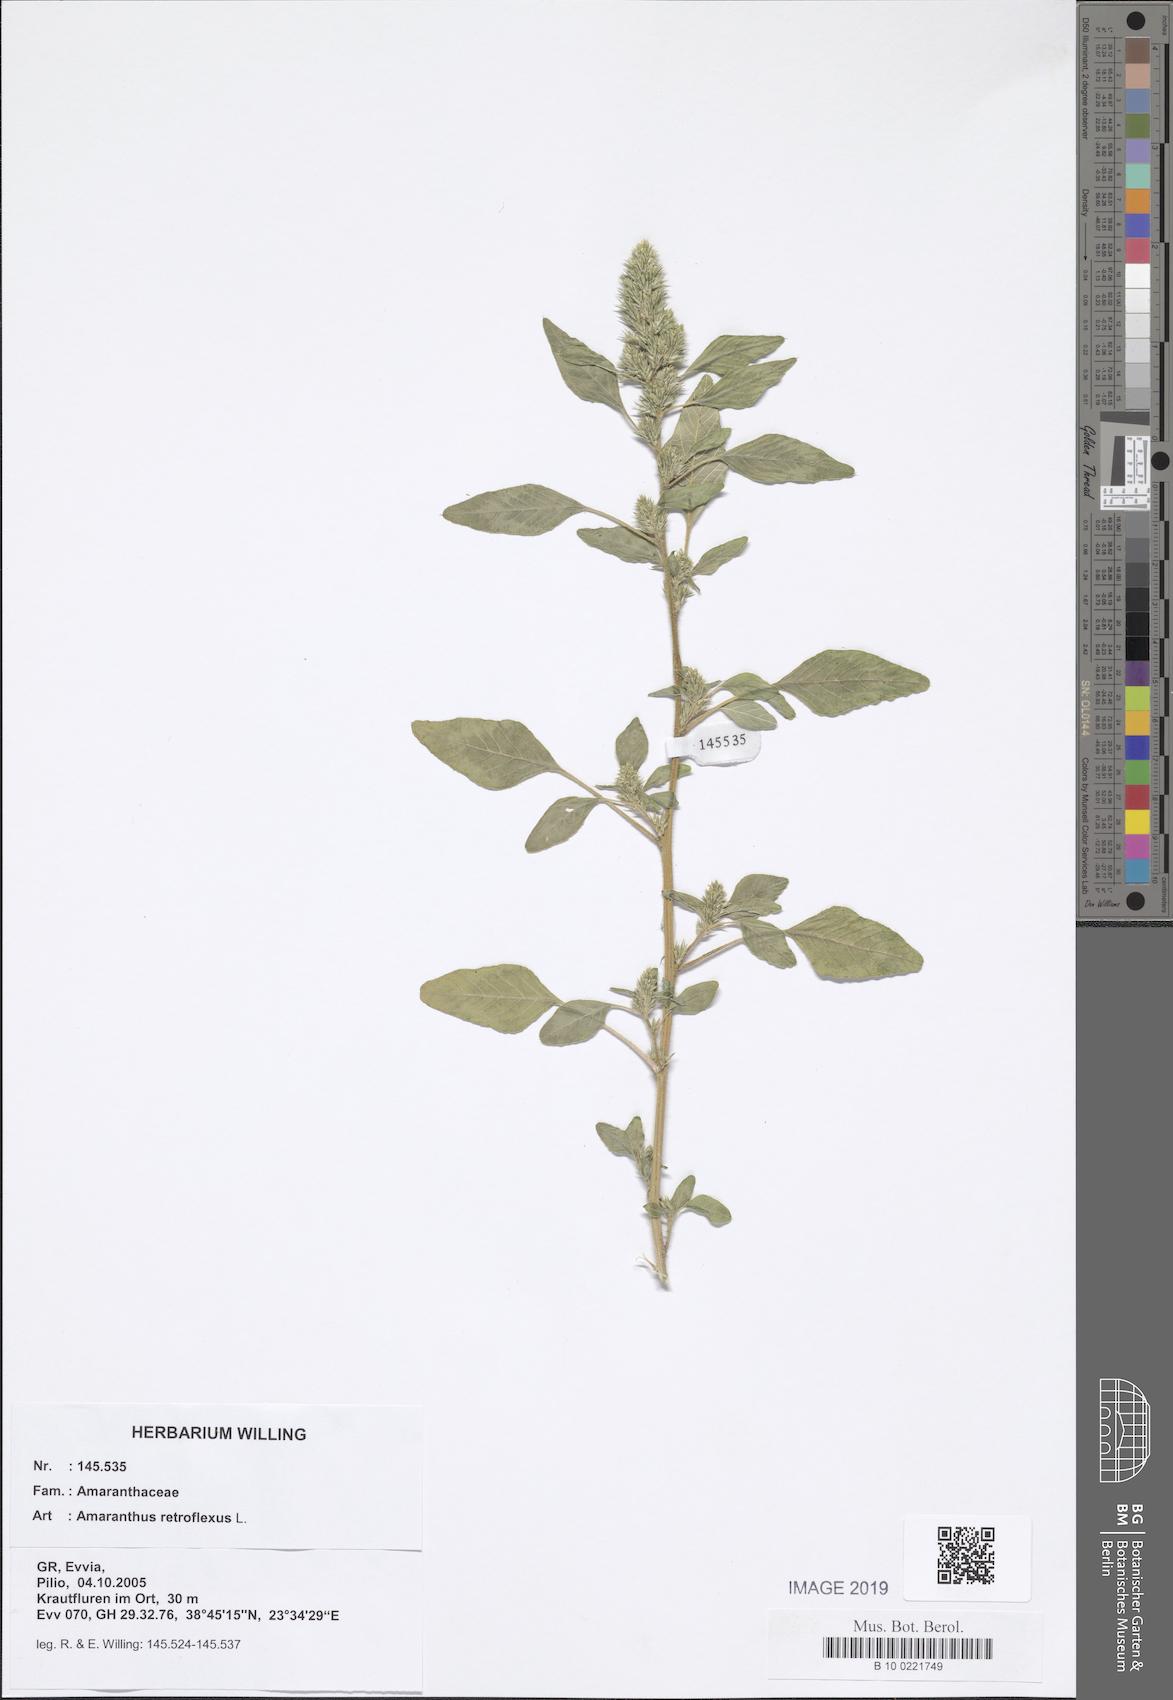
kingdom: Plantae
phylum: Tracheophyta
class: Magnoliopsida
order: Caryophyllales
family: Amaranthaceae
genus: Amaranthus
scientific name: Amaranthus retroflexus
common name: Redroot amaranth
